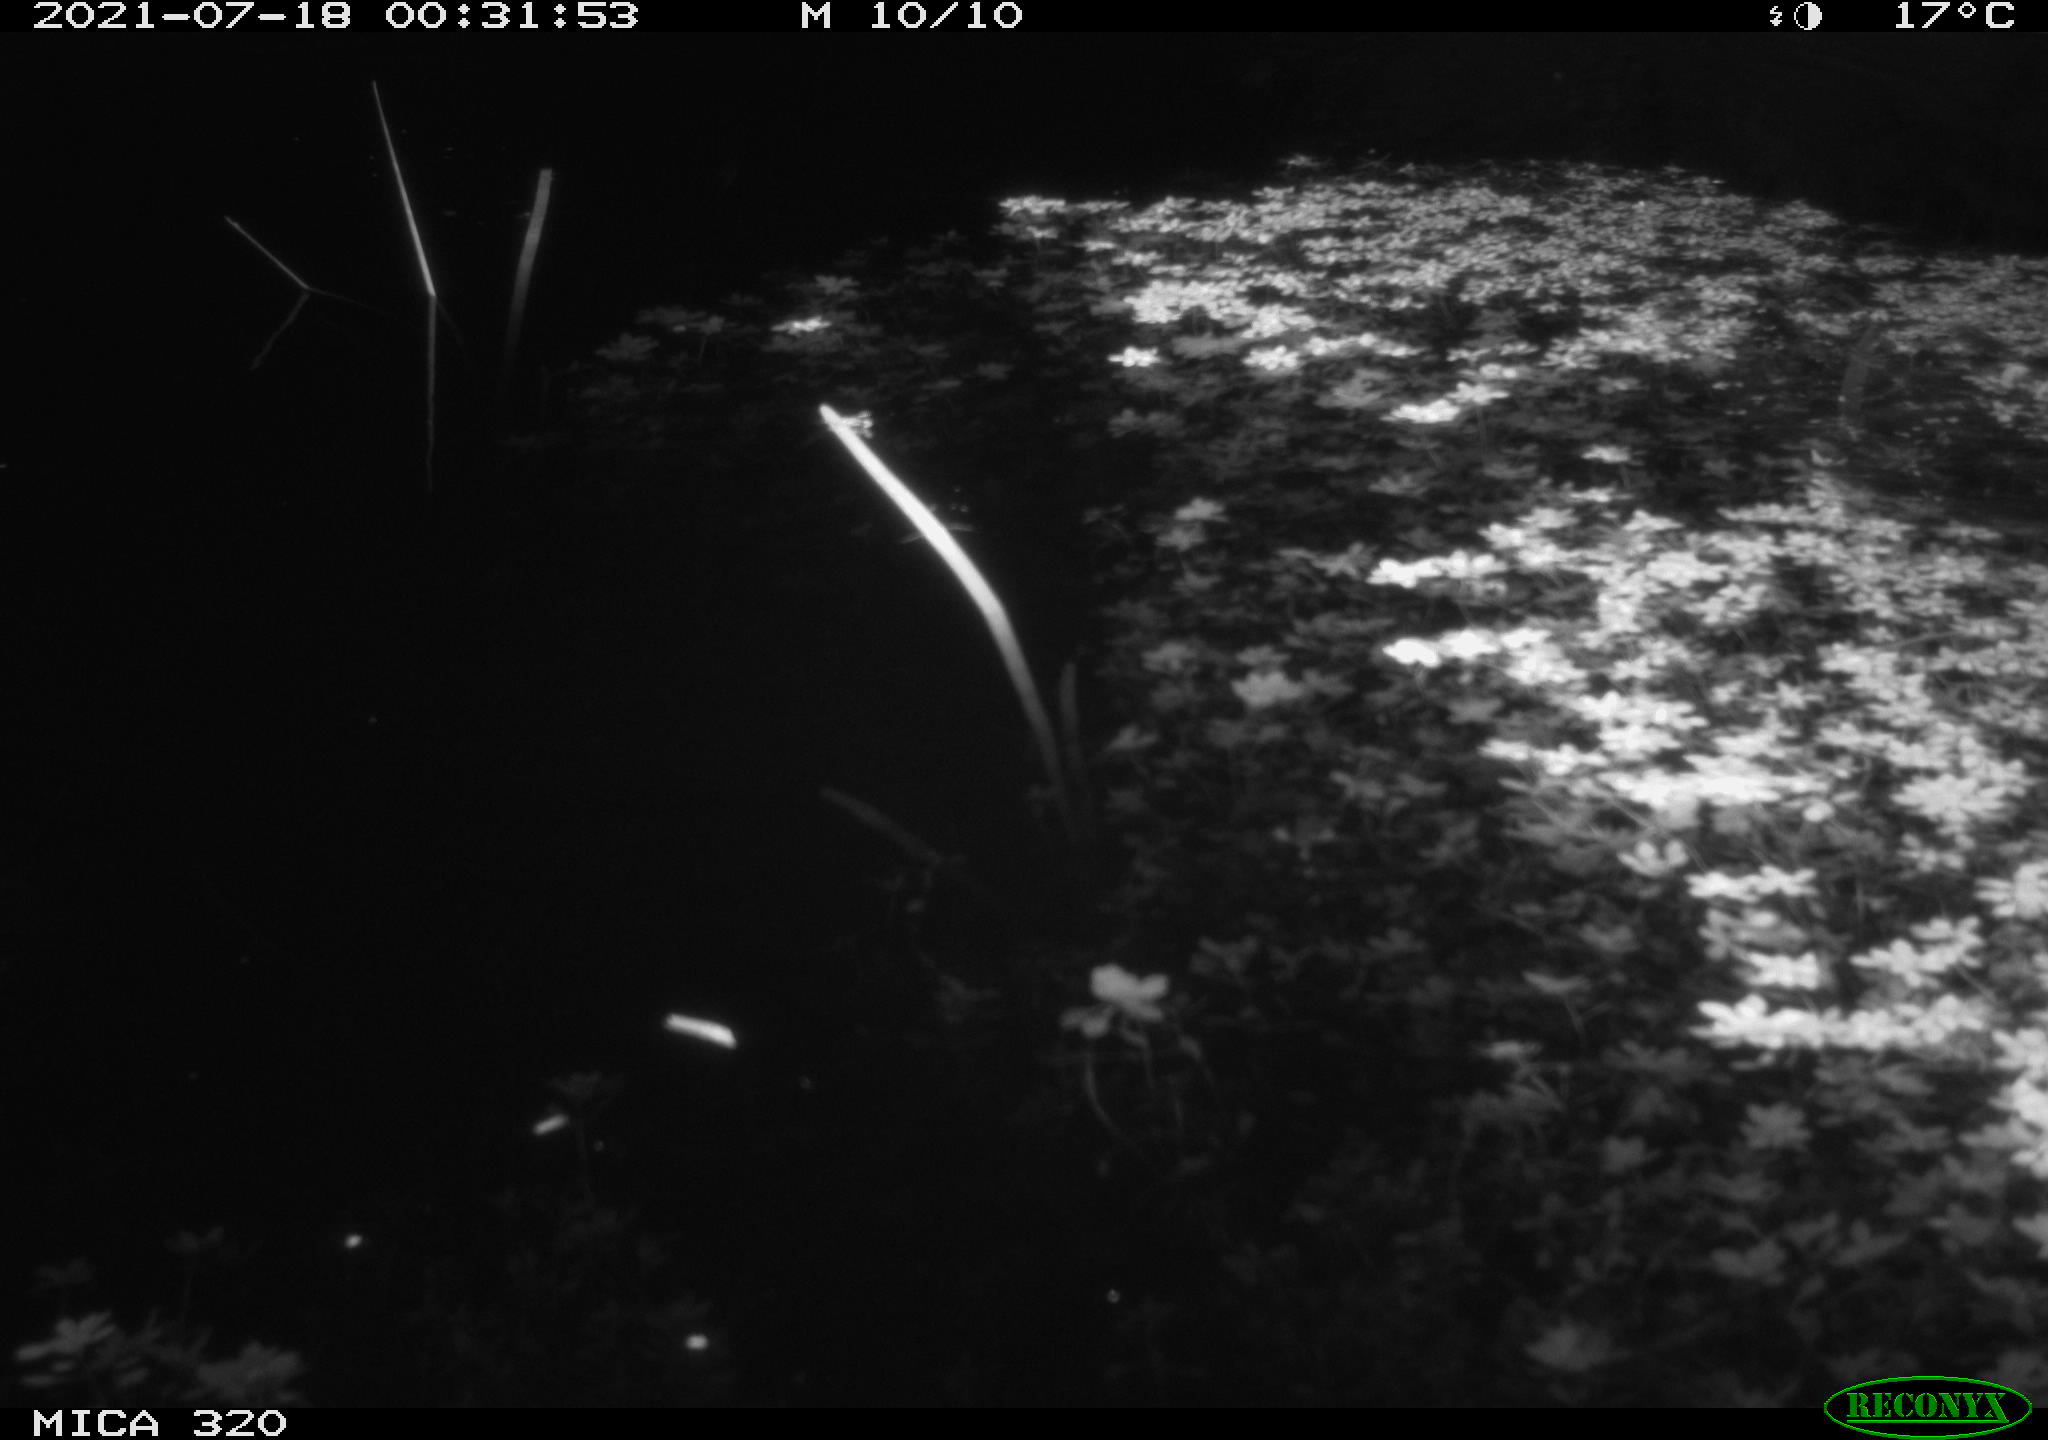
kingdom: Animalia
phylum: Chordata
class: Mammalia
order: Rodentia
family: Muridae
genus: Rattus
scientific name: Rattus norvegicus
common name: Brown rat
